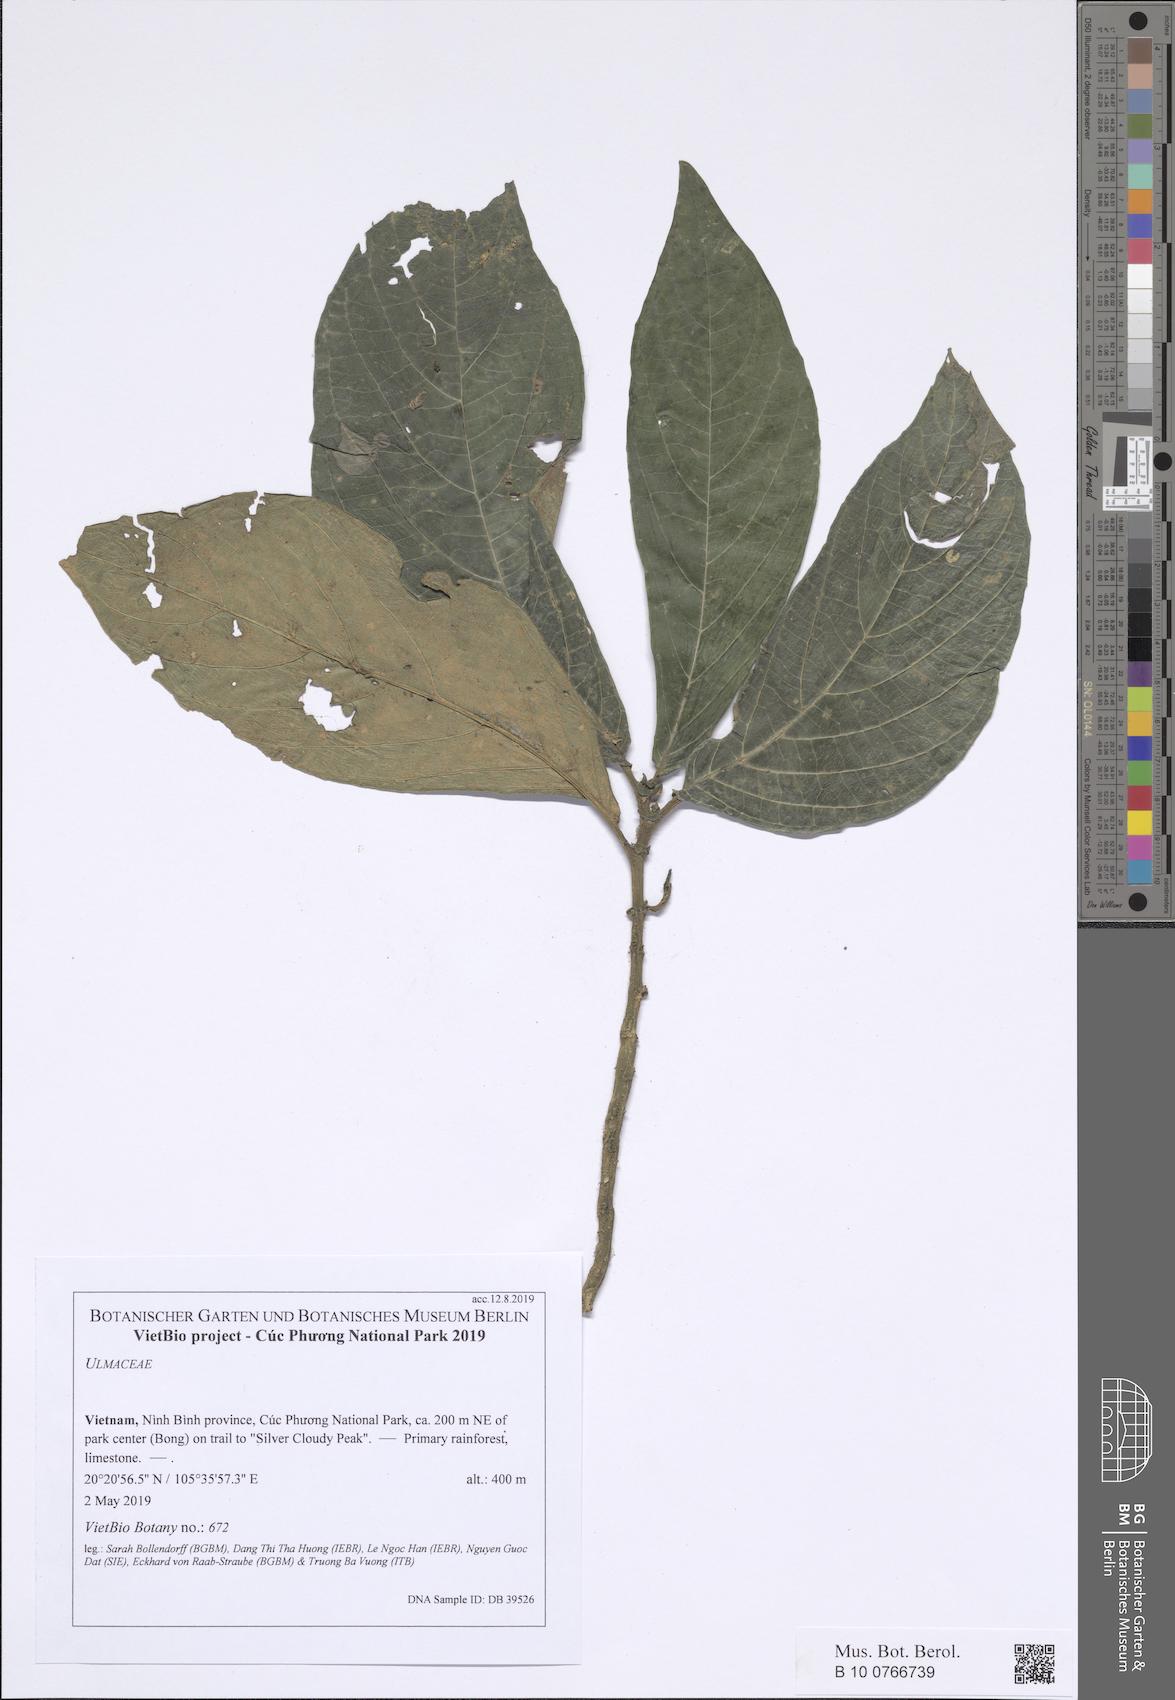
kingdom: Plantae
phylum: Tracheophyta
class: Magnoliopsida
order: Lamiales
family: Gesneriaceae
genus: Stauranthera
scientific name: Stauranthera
